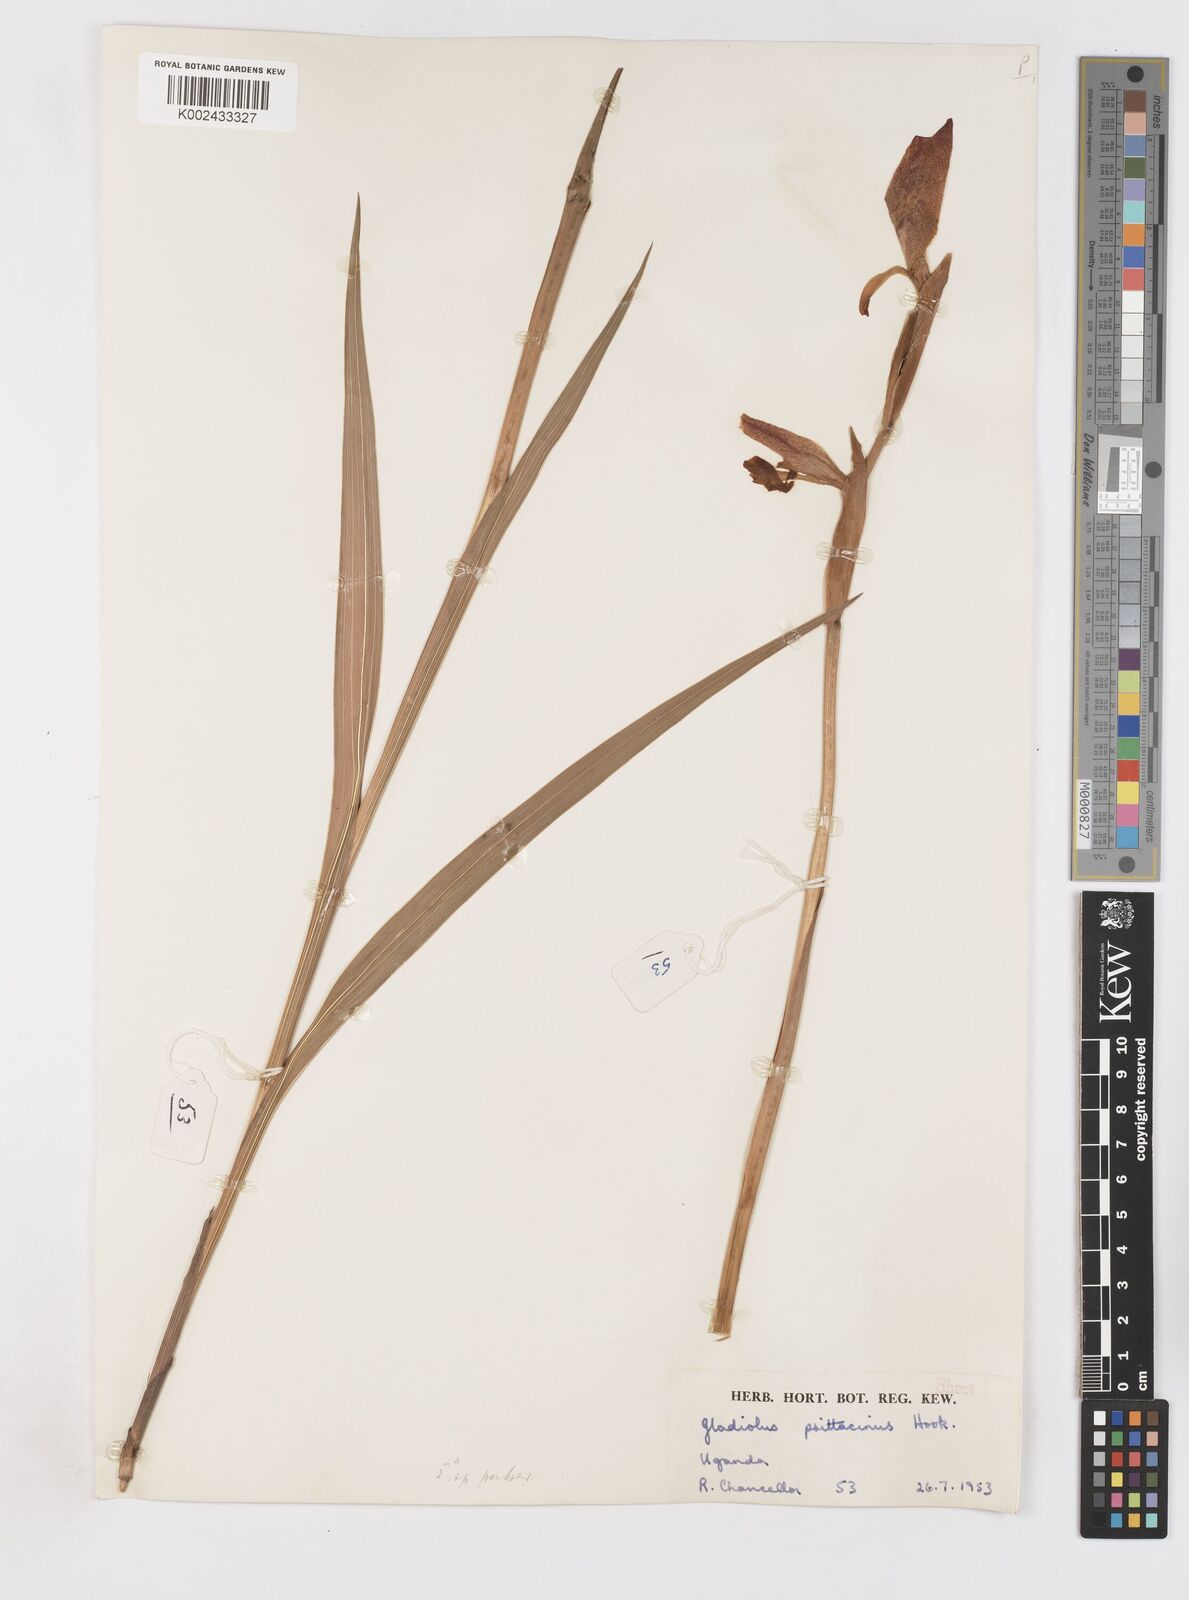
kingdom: Plantae
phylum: Tracheophyta
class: Liliopsida
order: Asparagales
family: Iridaceae
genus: Gladiolus
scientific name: Gladiolus dalenii
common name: Cornflag
